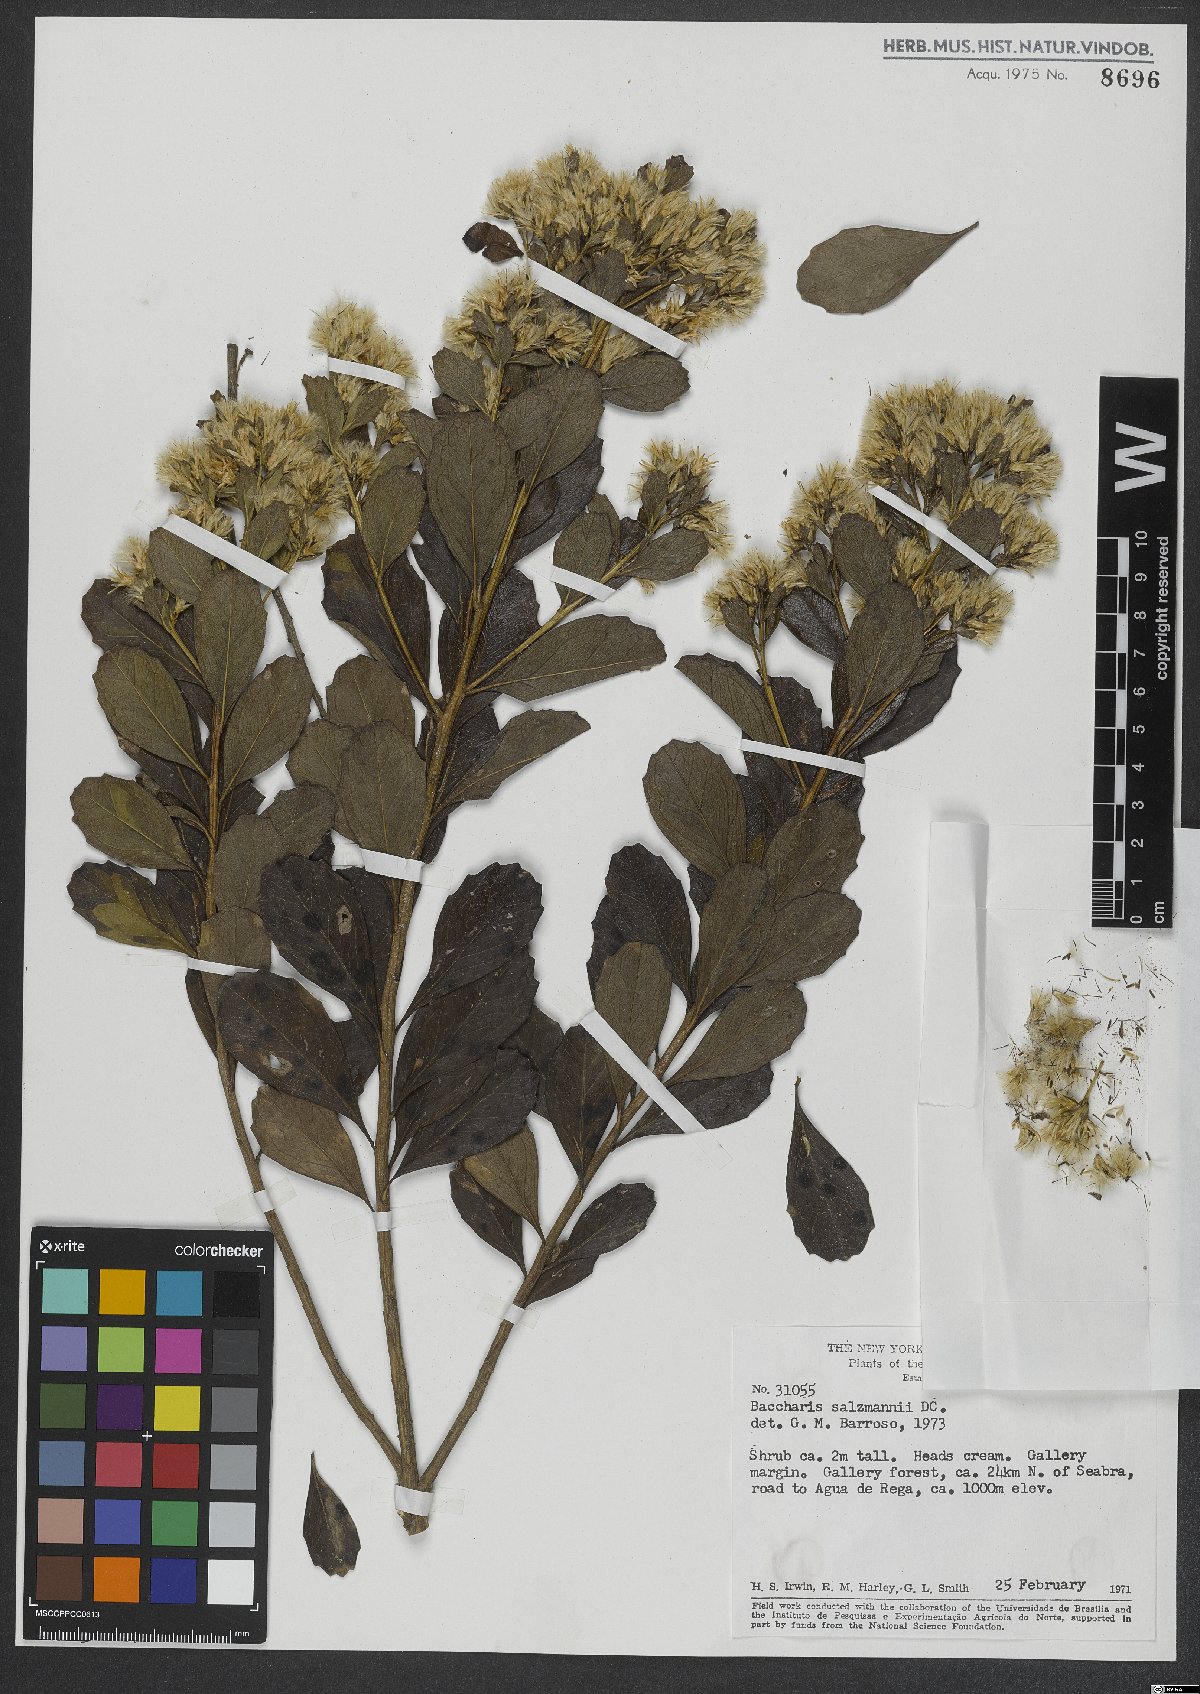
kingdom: Plantae
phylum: Tracheophyta
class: Magnoliopsida
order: Asterales
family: Asteraceae
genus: Baccharis
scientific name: Baccharis retusa
